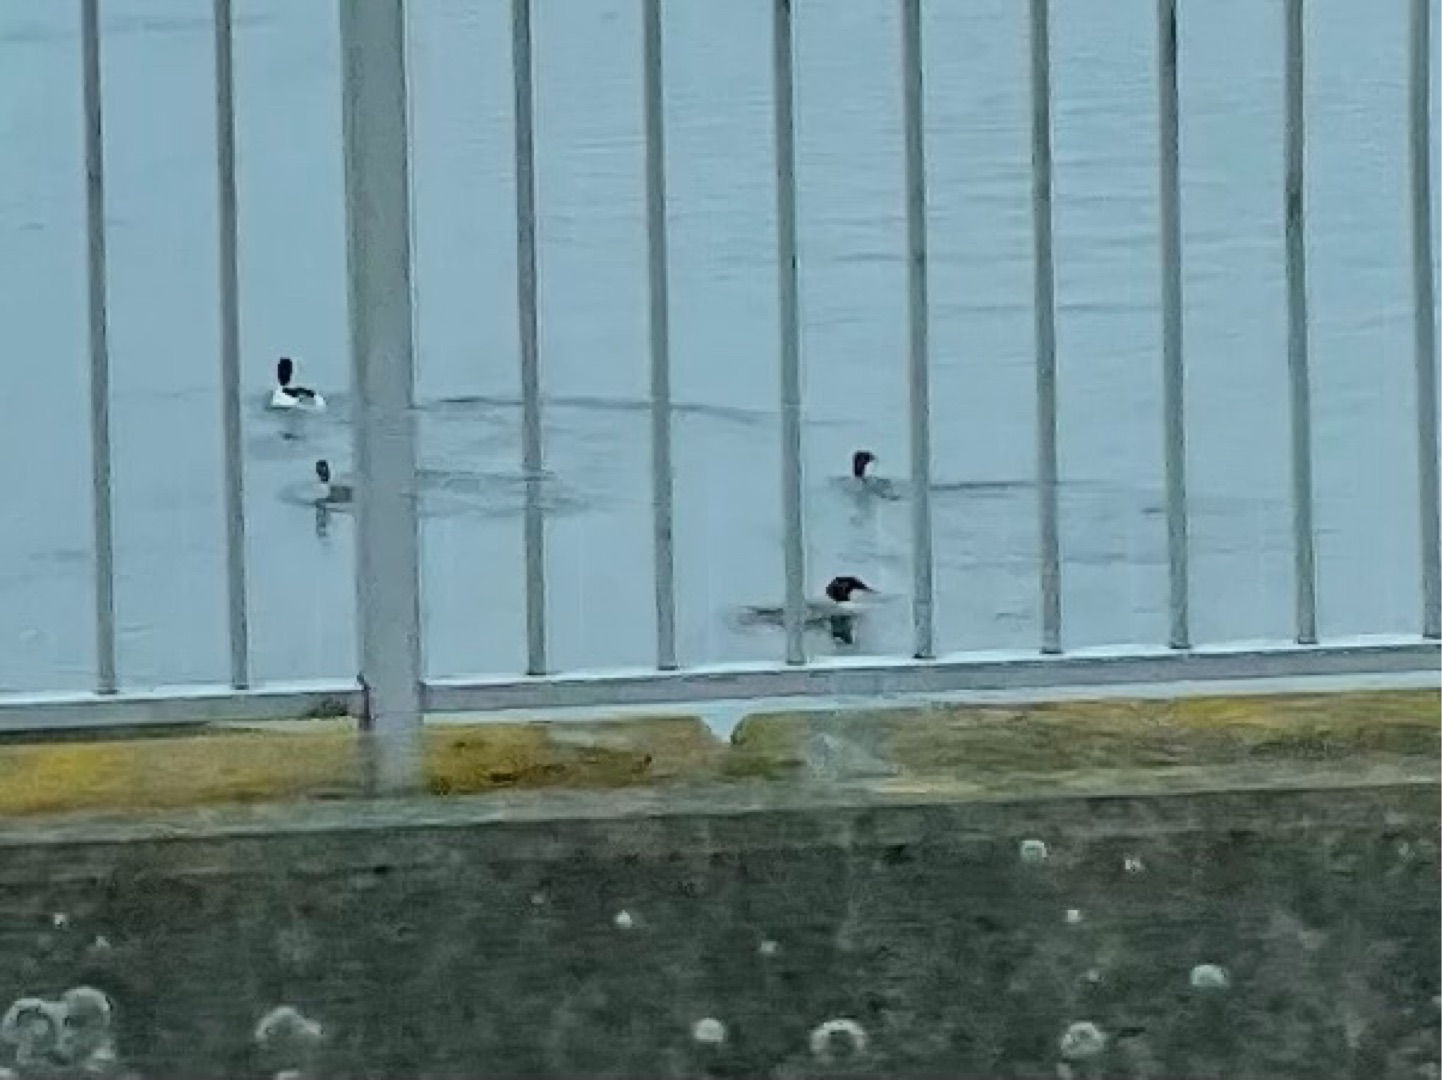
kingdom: Animalia
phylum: Chordata
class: Aves
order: Anseriformes
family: Anatidae
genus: Mergus
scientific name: Mergus merganser
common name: Stor skallesluger
